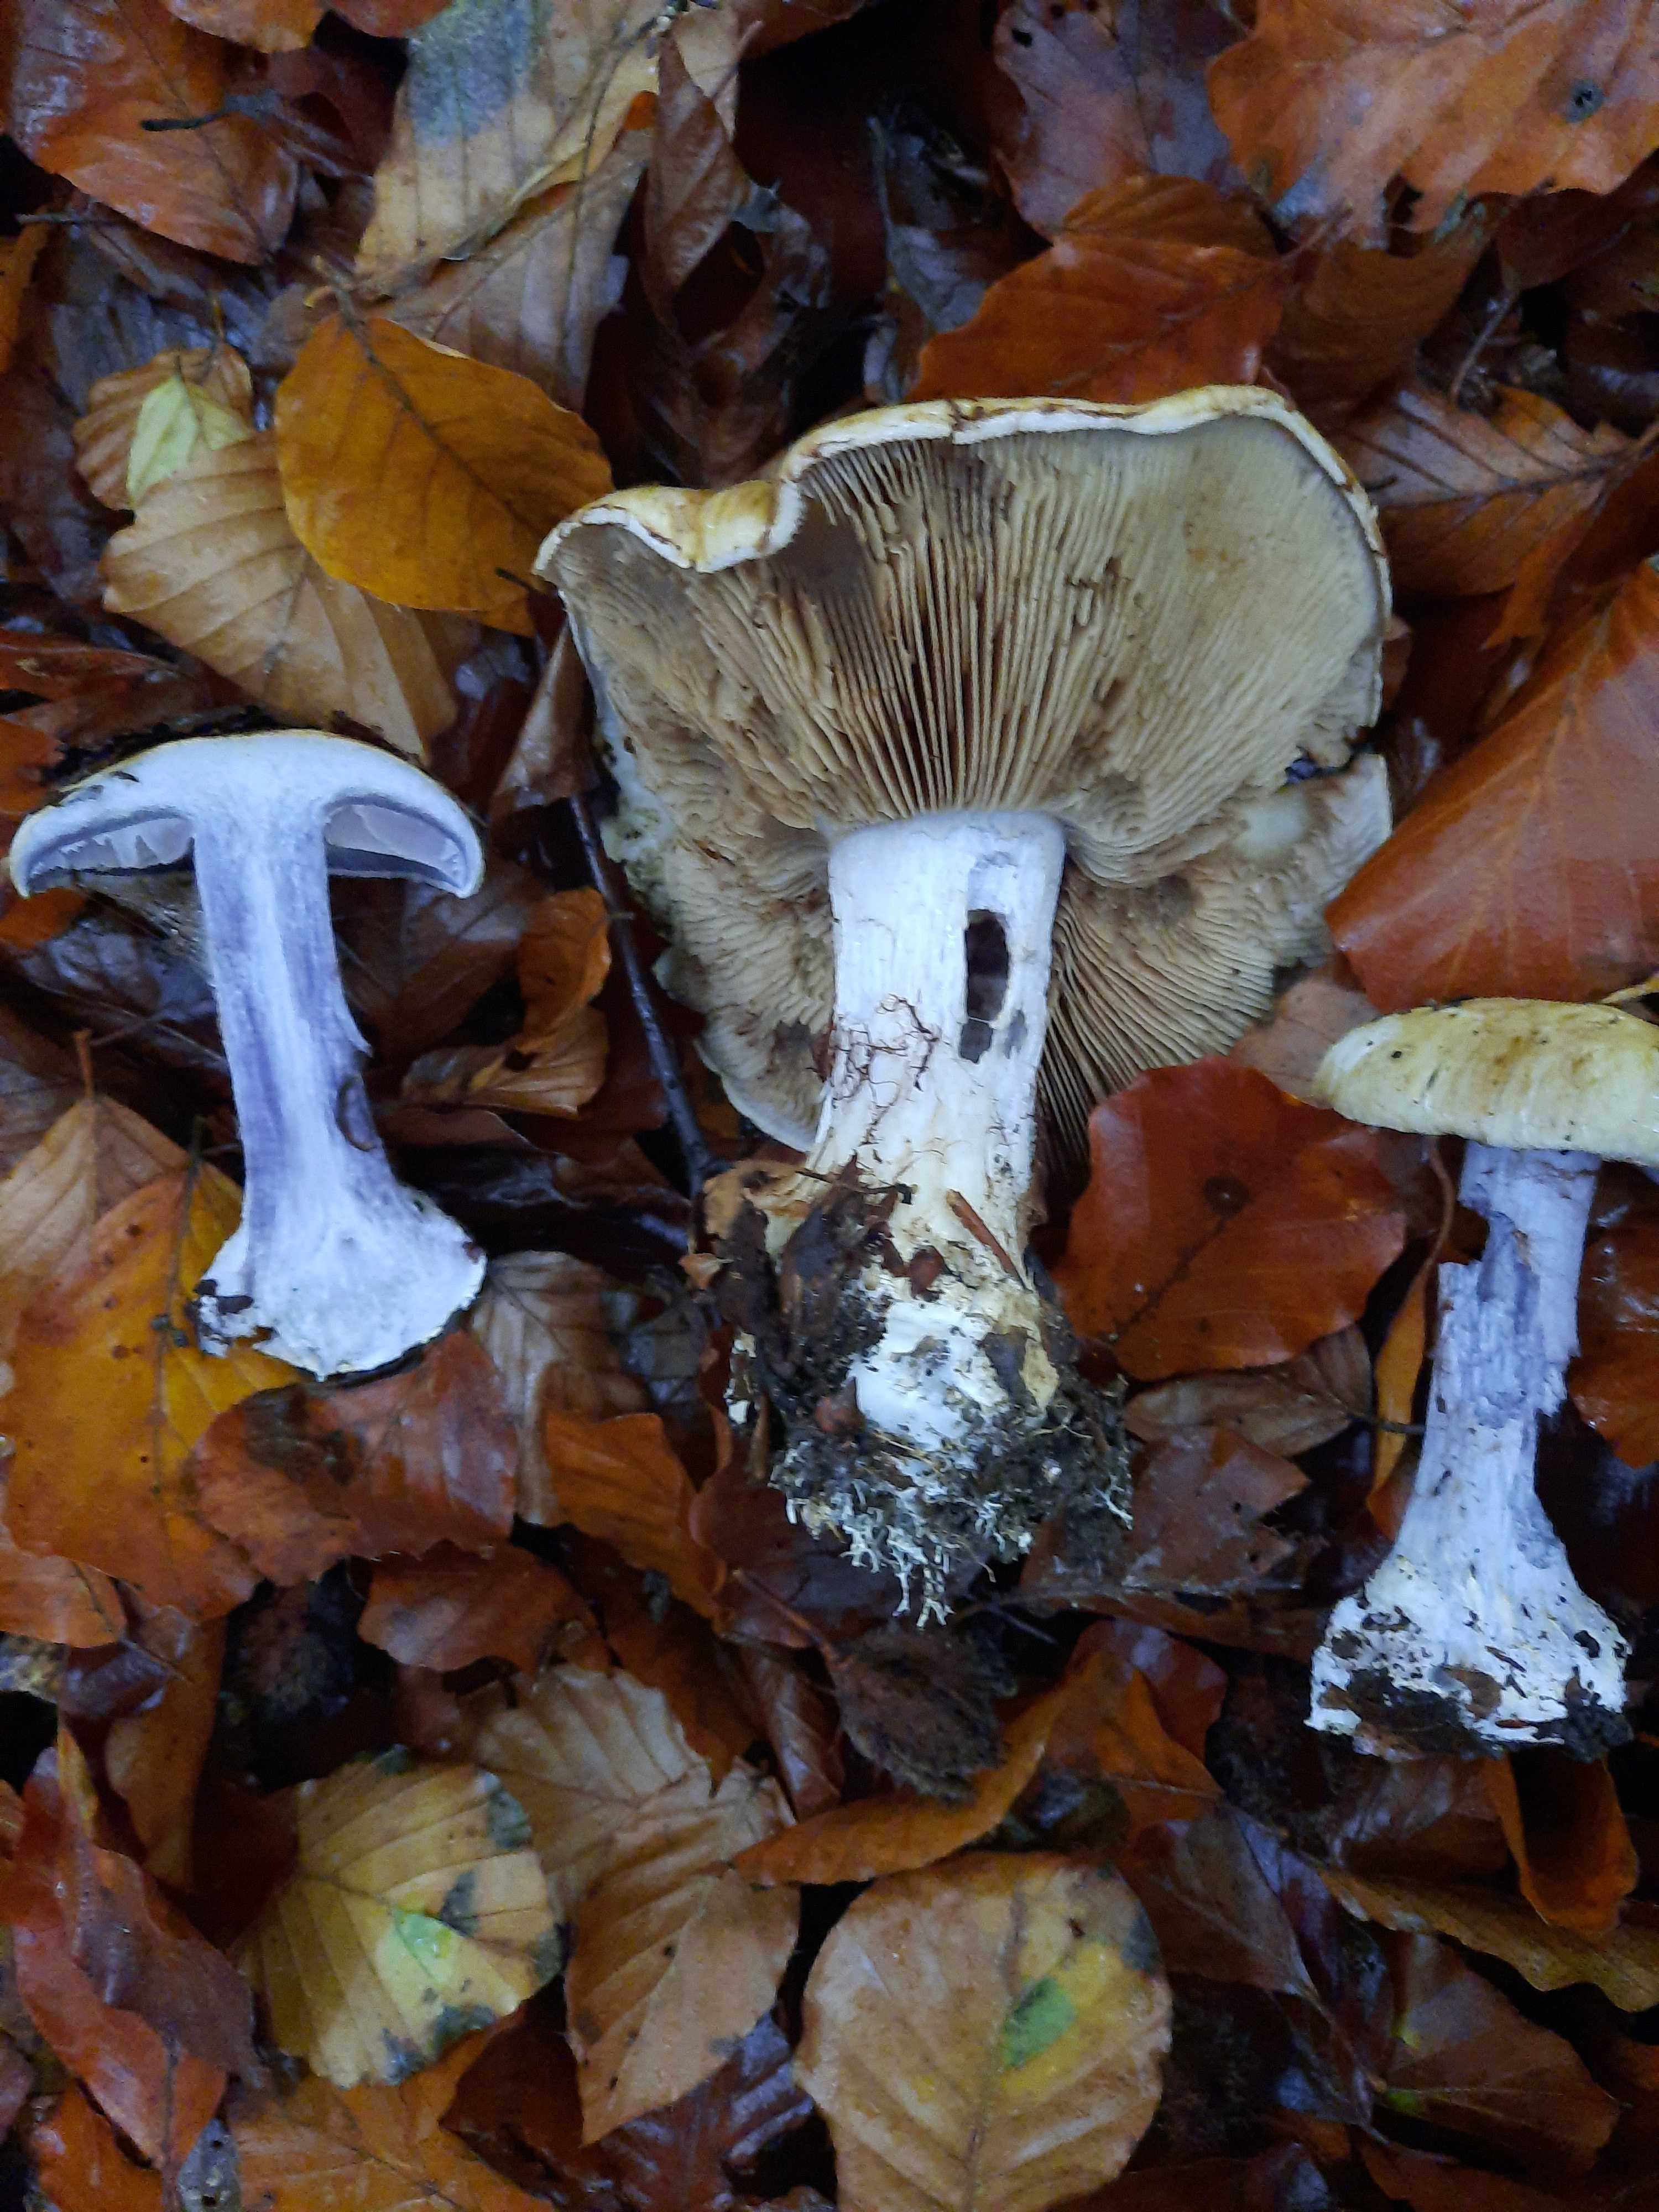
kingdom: Fungi
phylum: Basidiomycota
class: Agaricomycetes
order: Agaricales
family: Cortinariaceae
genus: Cortinarius
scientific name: Cortinarius anserinus
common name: bøge-slørhat
